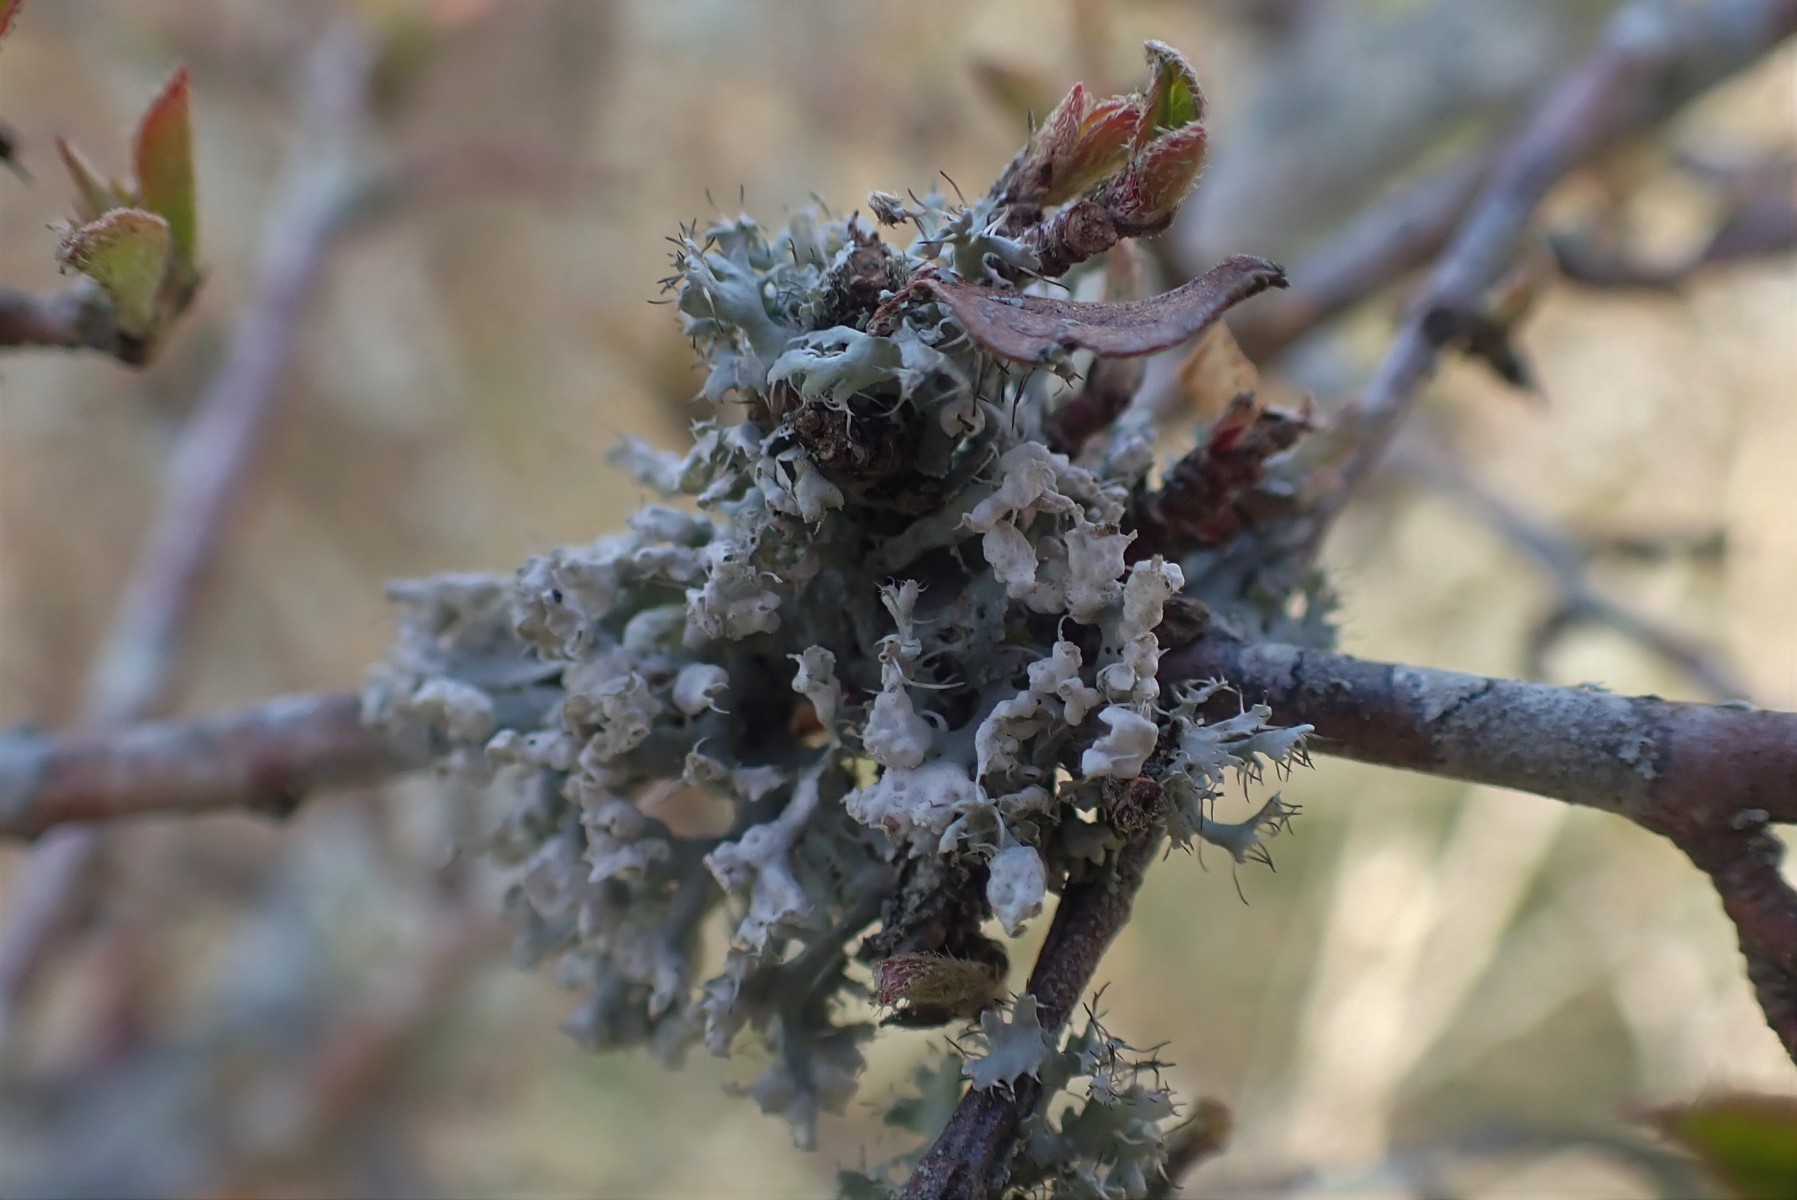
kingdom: Fungi
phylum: Ascomycota
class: Lecanoromycetes
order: Caliciales
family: Physciaceae
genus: Physcia
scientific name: Physcia adscendens
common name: hætte-rosetlav
